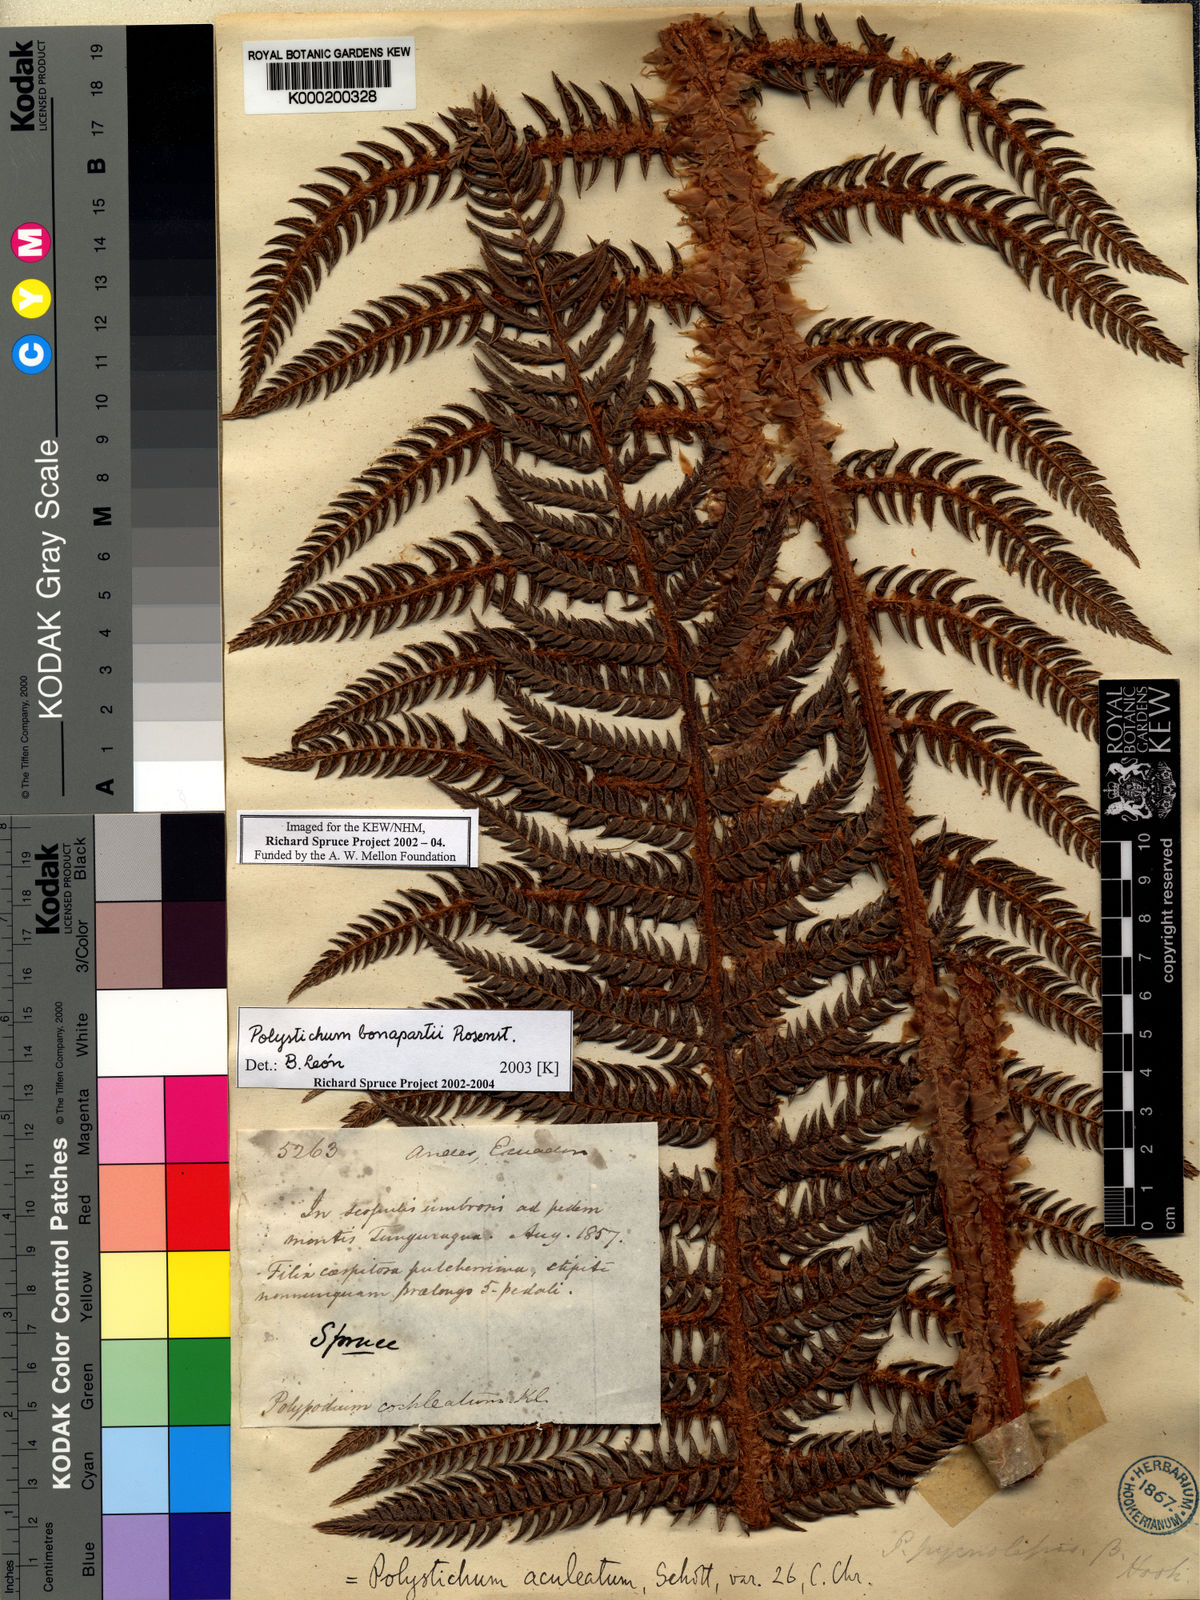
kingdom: Plantae
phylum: Tracheophyta
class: Polypodiopsida
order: Polypodiales
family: Dryopteridaceae
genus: Polystichum
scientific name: Polystichum bonapartii
